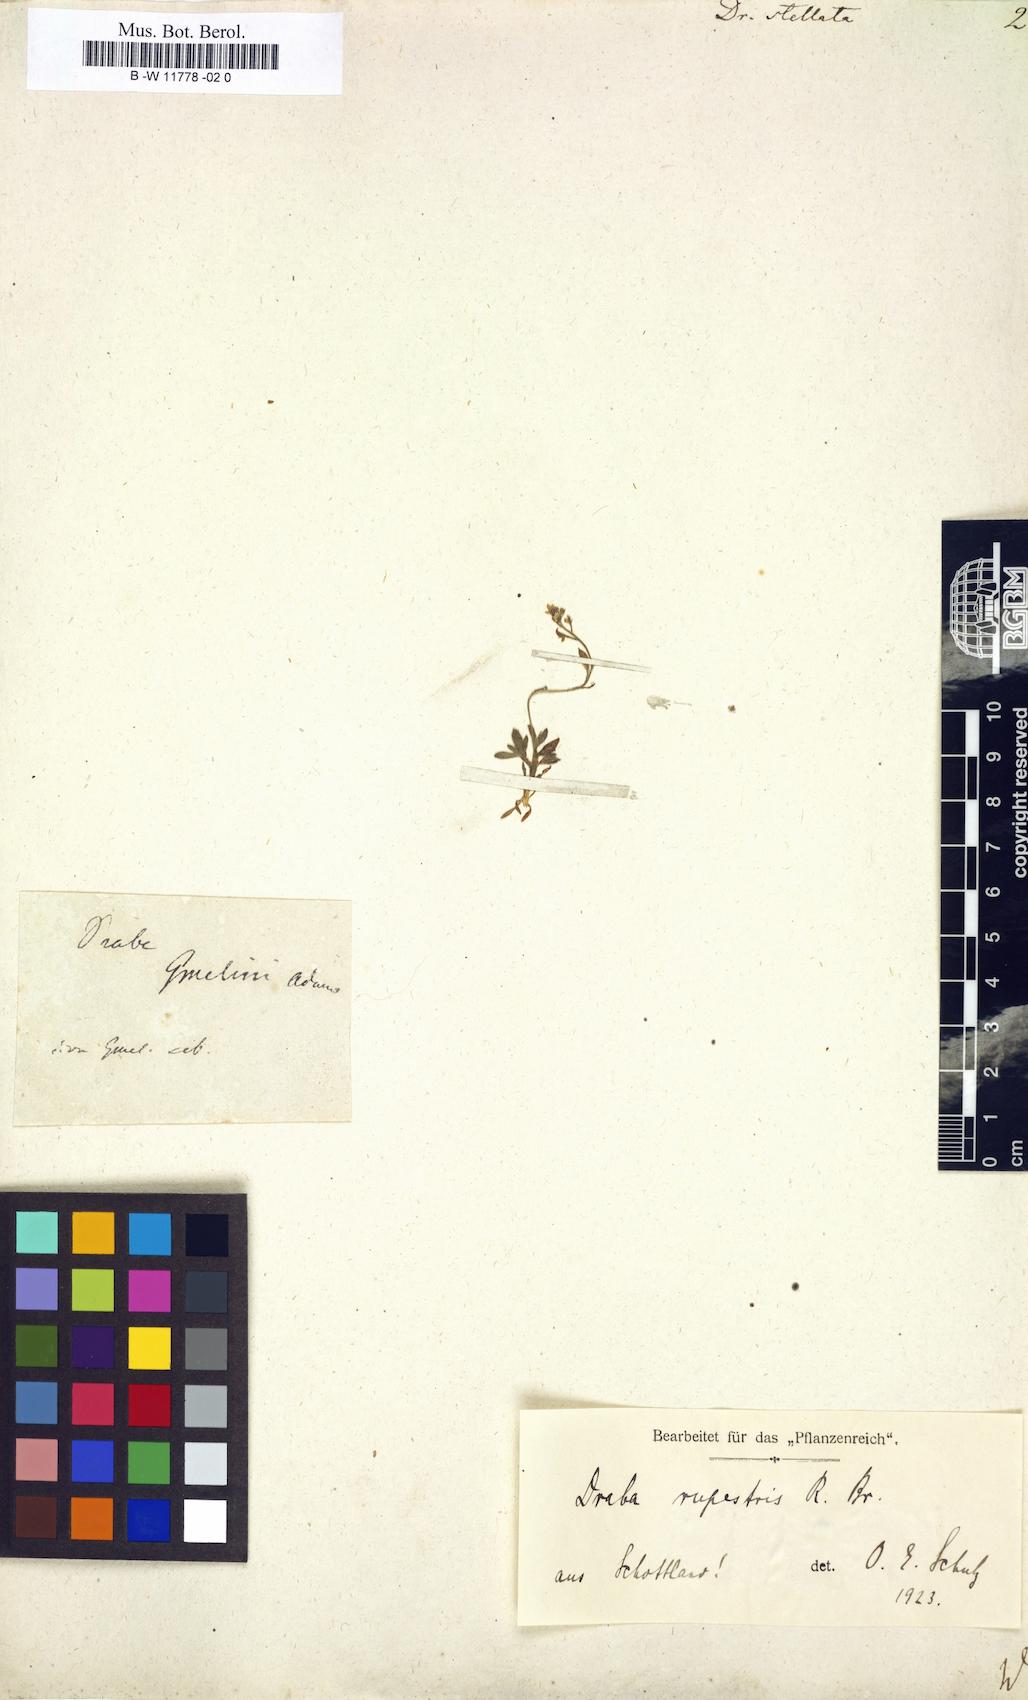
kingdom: Plantae
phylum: Tracheophyta
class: Magnoliopsida
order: Brassicales
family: Brassicaceae
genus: Draba
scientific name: Draba stellata
